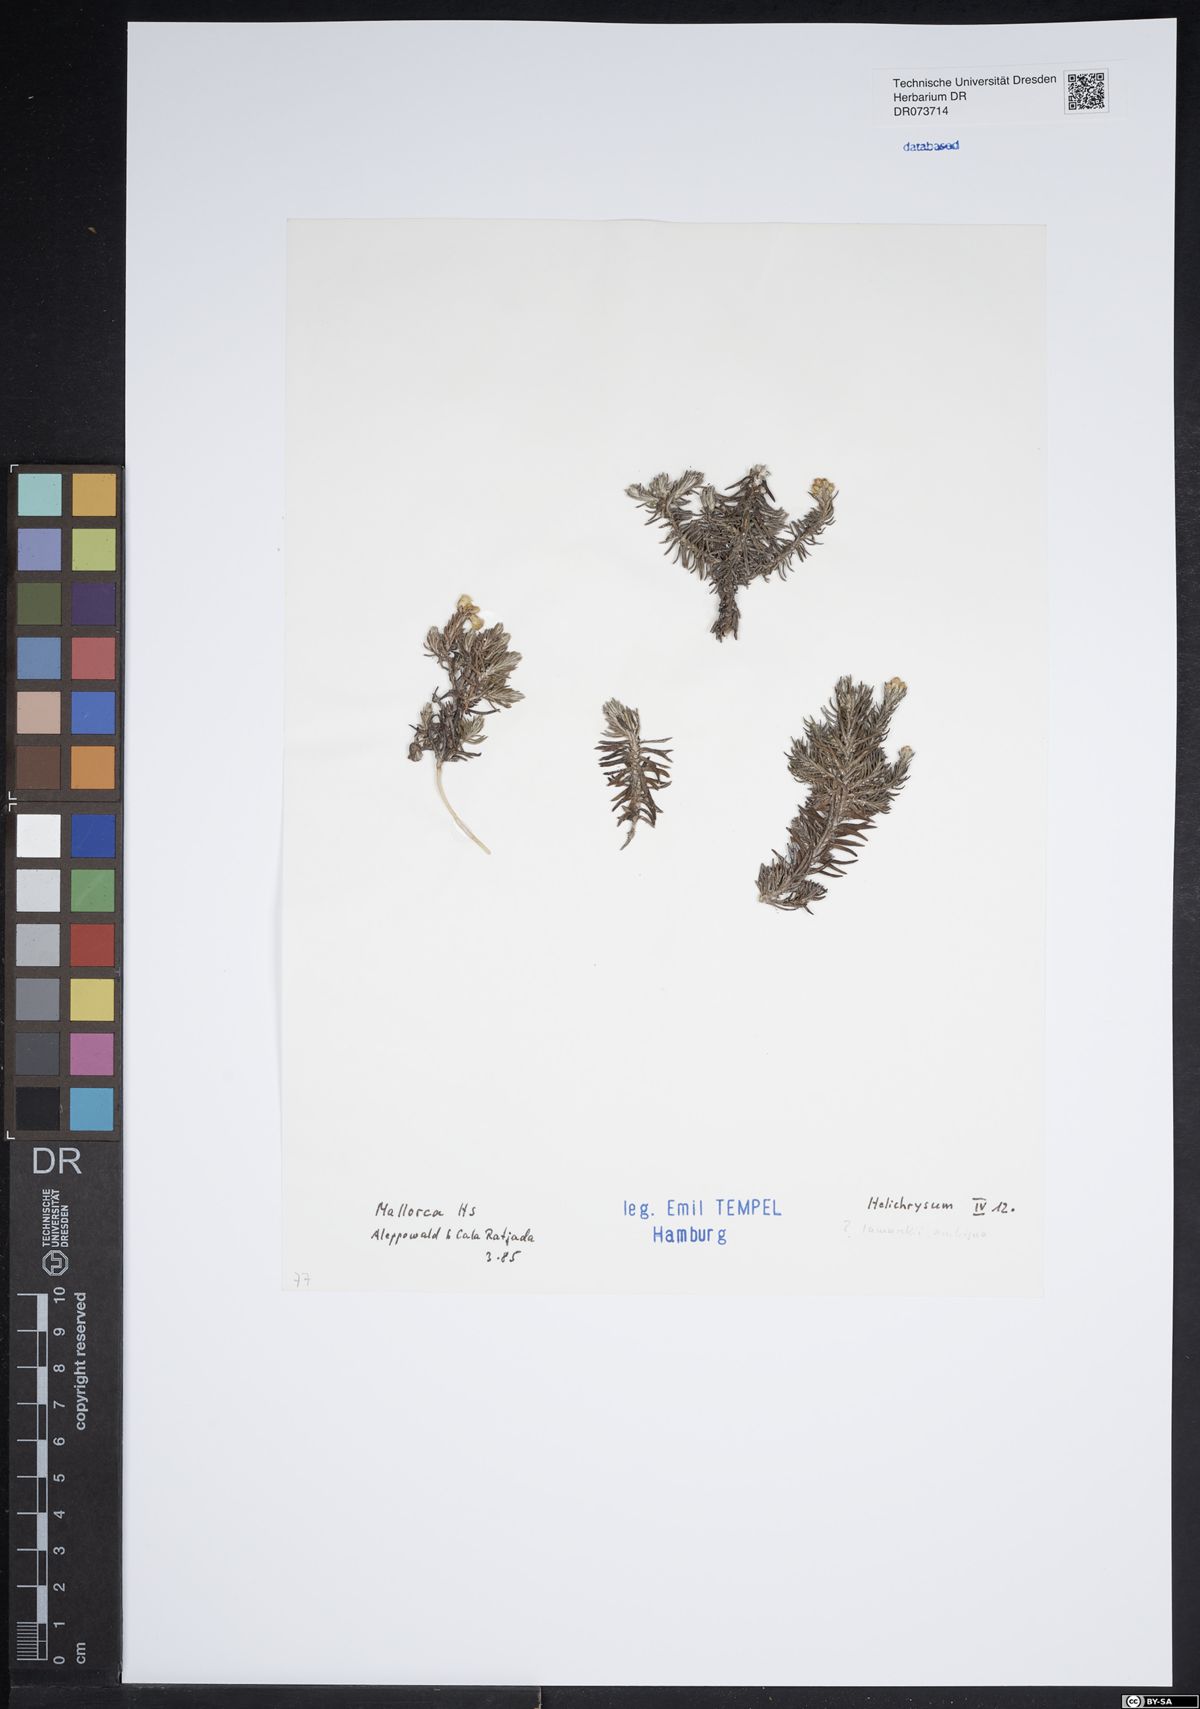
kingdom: Plantae
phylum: Tracheophyta
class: Magnoliopsida
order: Asterales
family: Asteraceae
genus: Helichrysum
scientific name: Helichrysum
